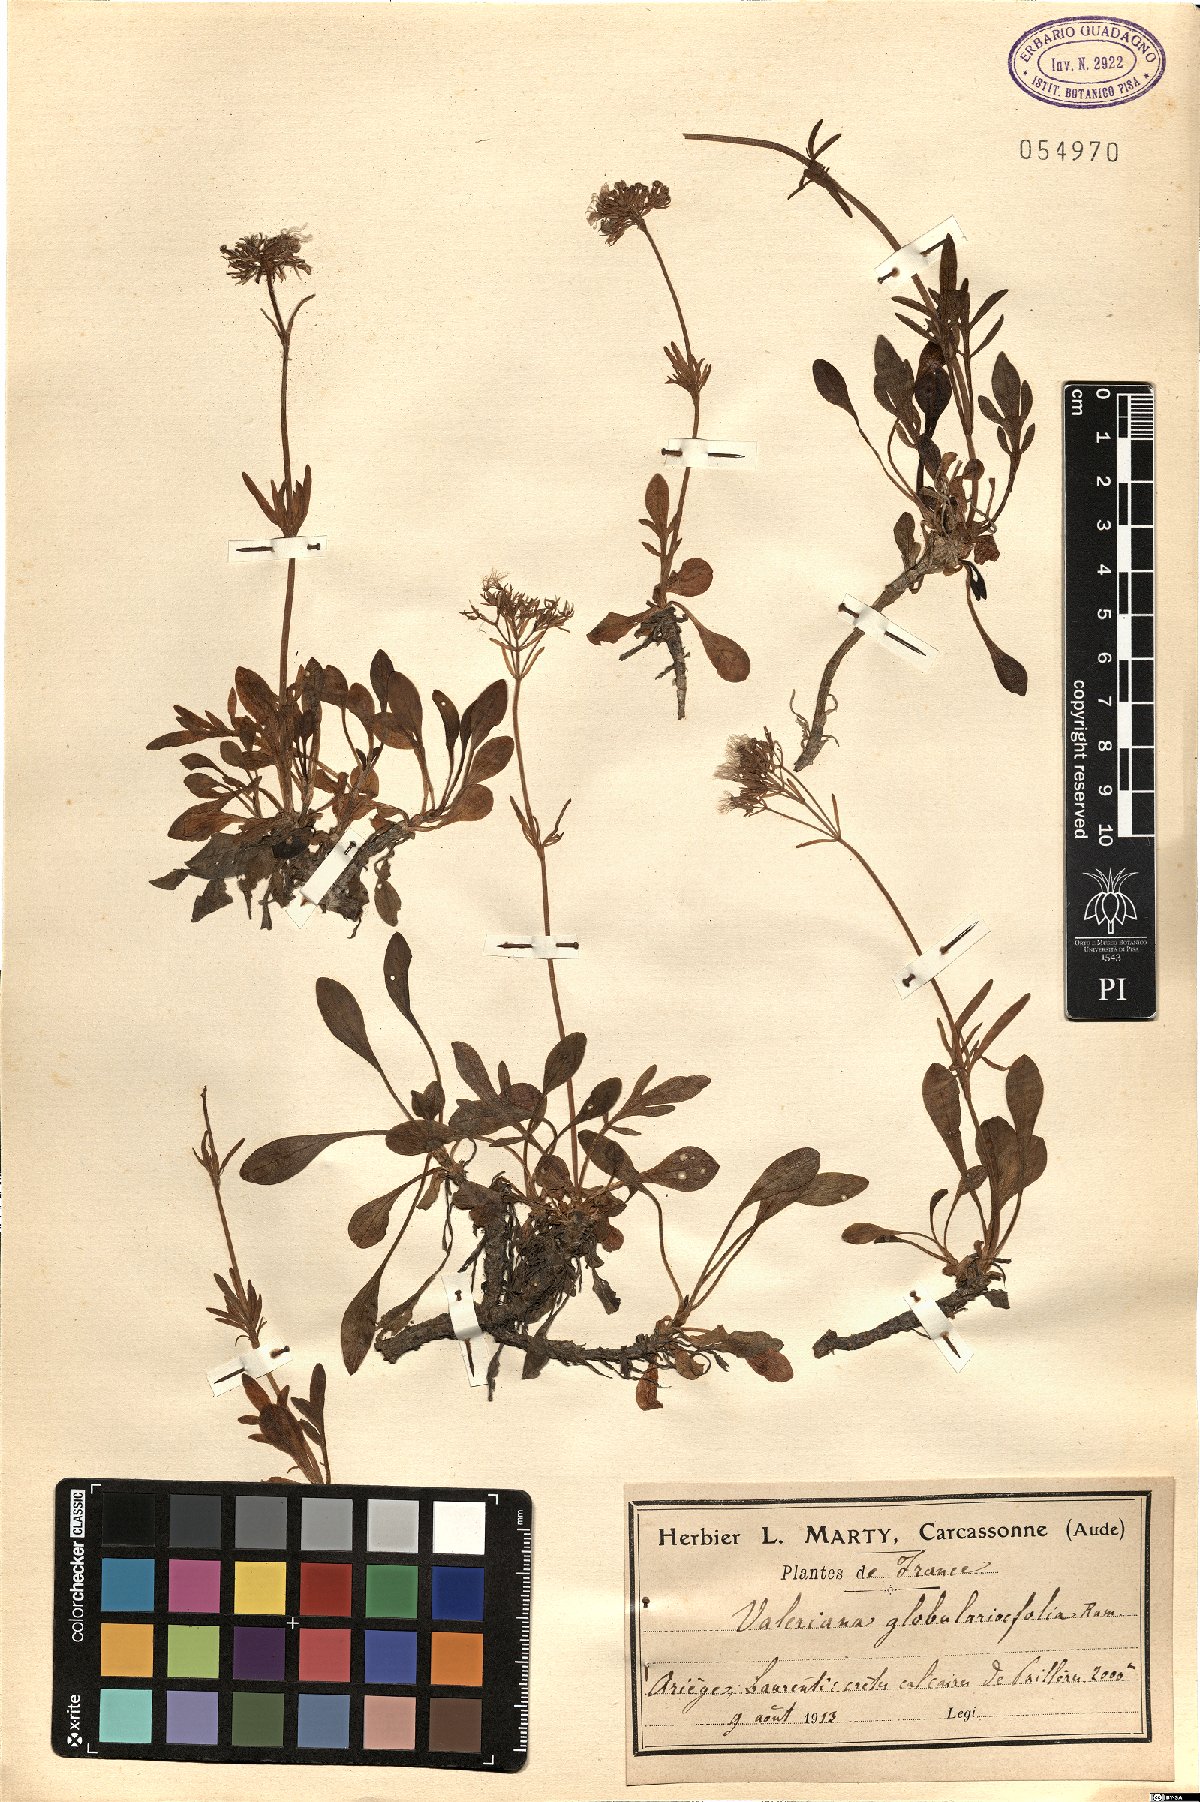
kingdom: Plantae
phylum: Tracheophyta
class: Magnoliopsida
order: Dipsacales
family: Caprifoliaceae
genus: Valeriana
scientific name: Valeriana apula
